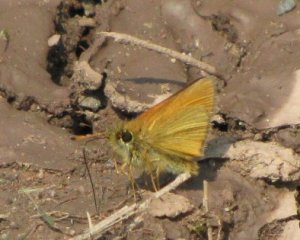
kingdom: Animalia
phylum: Arthropoda
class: Insecta
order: Lepidoptera
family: Hesperiidae
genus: Thymelicus
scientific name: Thymelicus lineola
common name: European Skipper
